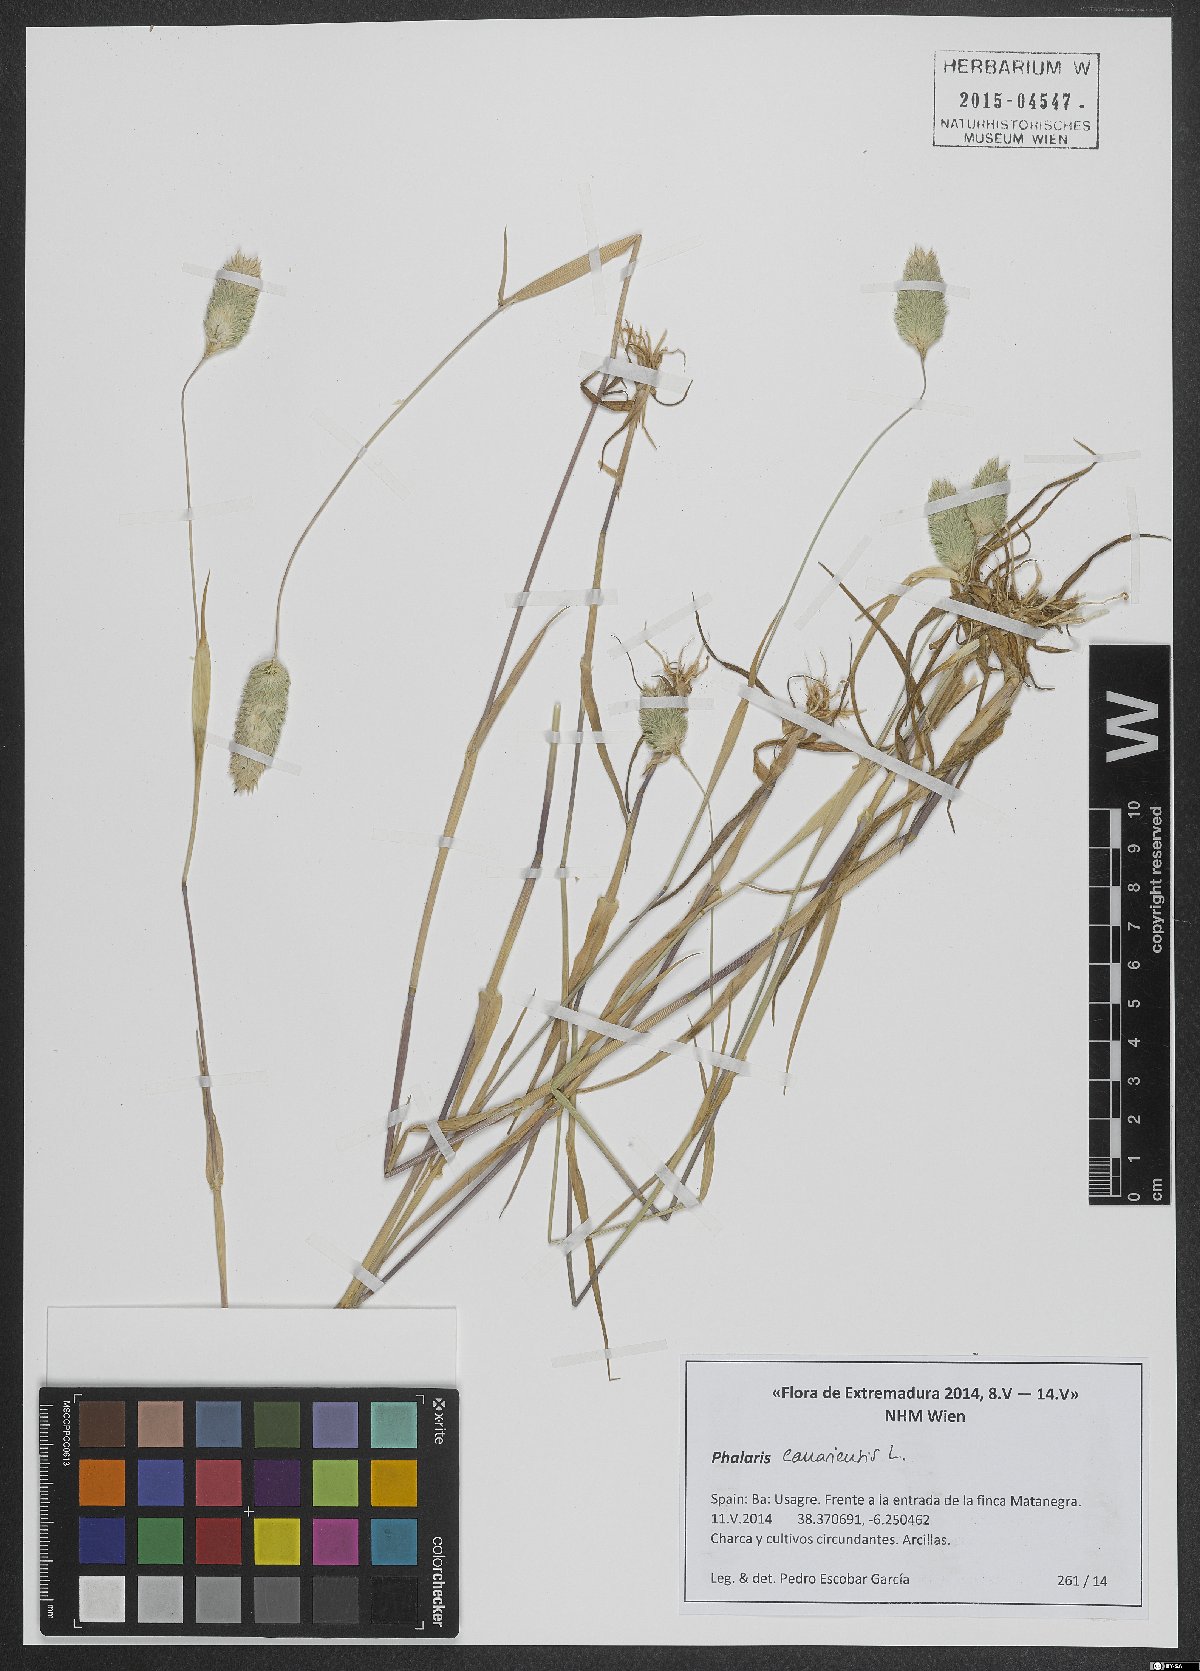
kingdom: Plantae
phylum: Tracheophyta
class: Liliopsida
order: Poales
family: Poaceae
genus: Phalaris
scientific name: Phalaris canariensis
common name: Annual canarygrass
